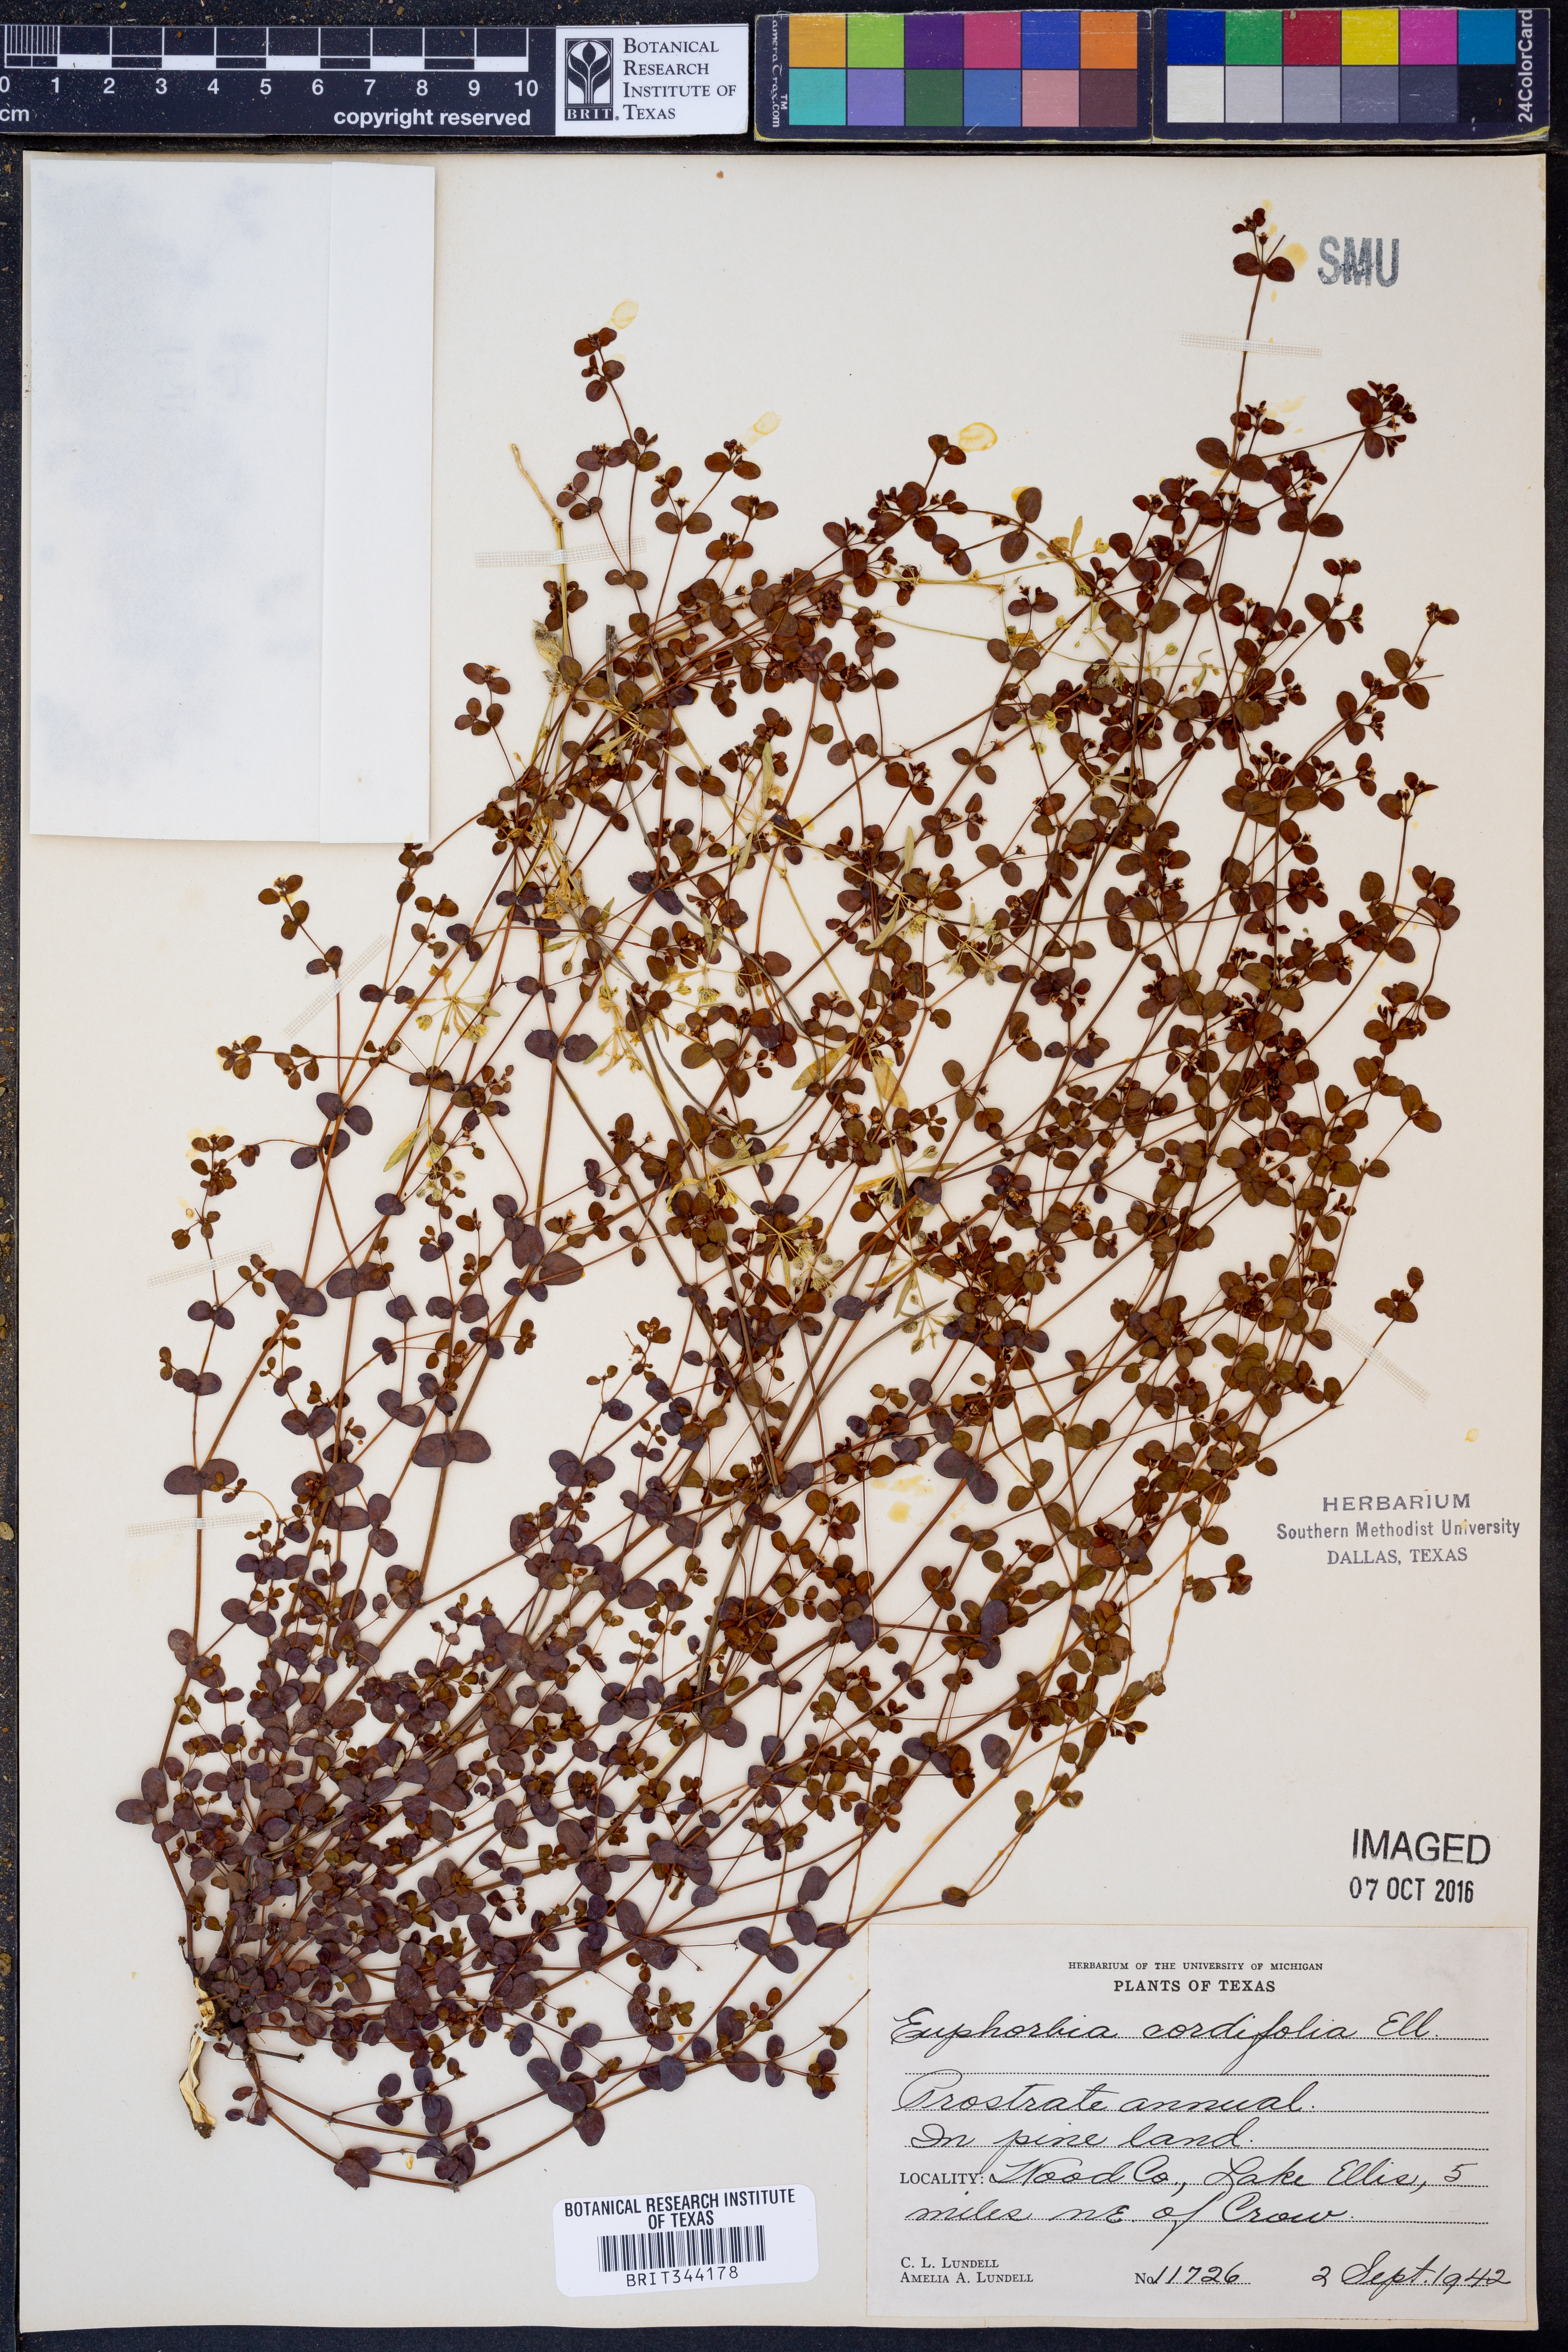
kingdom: Plantae
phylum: Tracheophyta
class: Magnoliopsida
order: Malpighiales
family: Euphorbiaceae
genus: Euphorbia
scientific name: Euphorbia cordifolia
